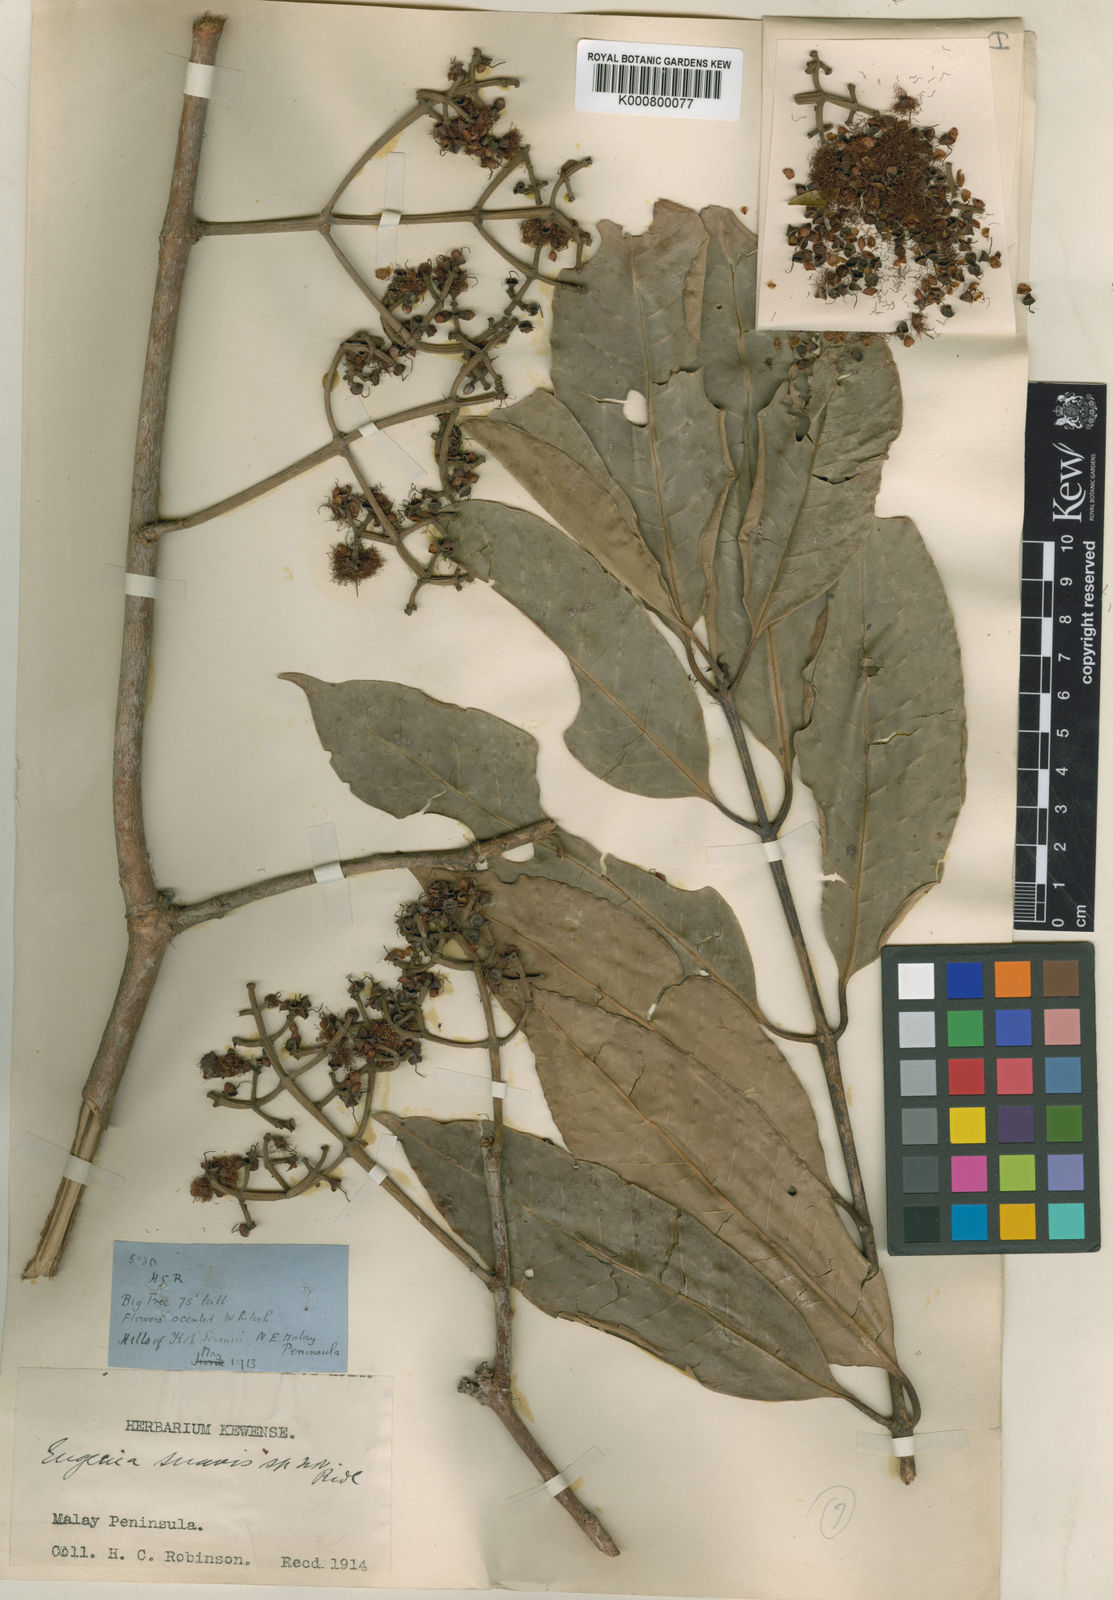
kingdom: Plantae
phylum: Tracheophyta
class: Magnoliopsida
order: Myrtales
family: Myrtaceae
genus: Syzygium
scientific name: Syzygium nervosum
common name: Daly river satinash
